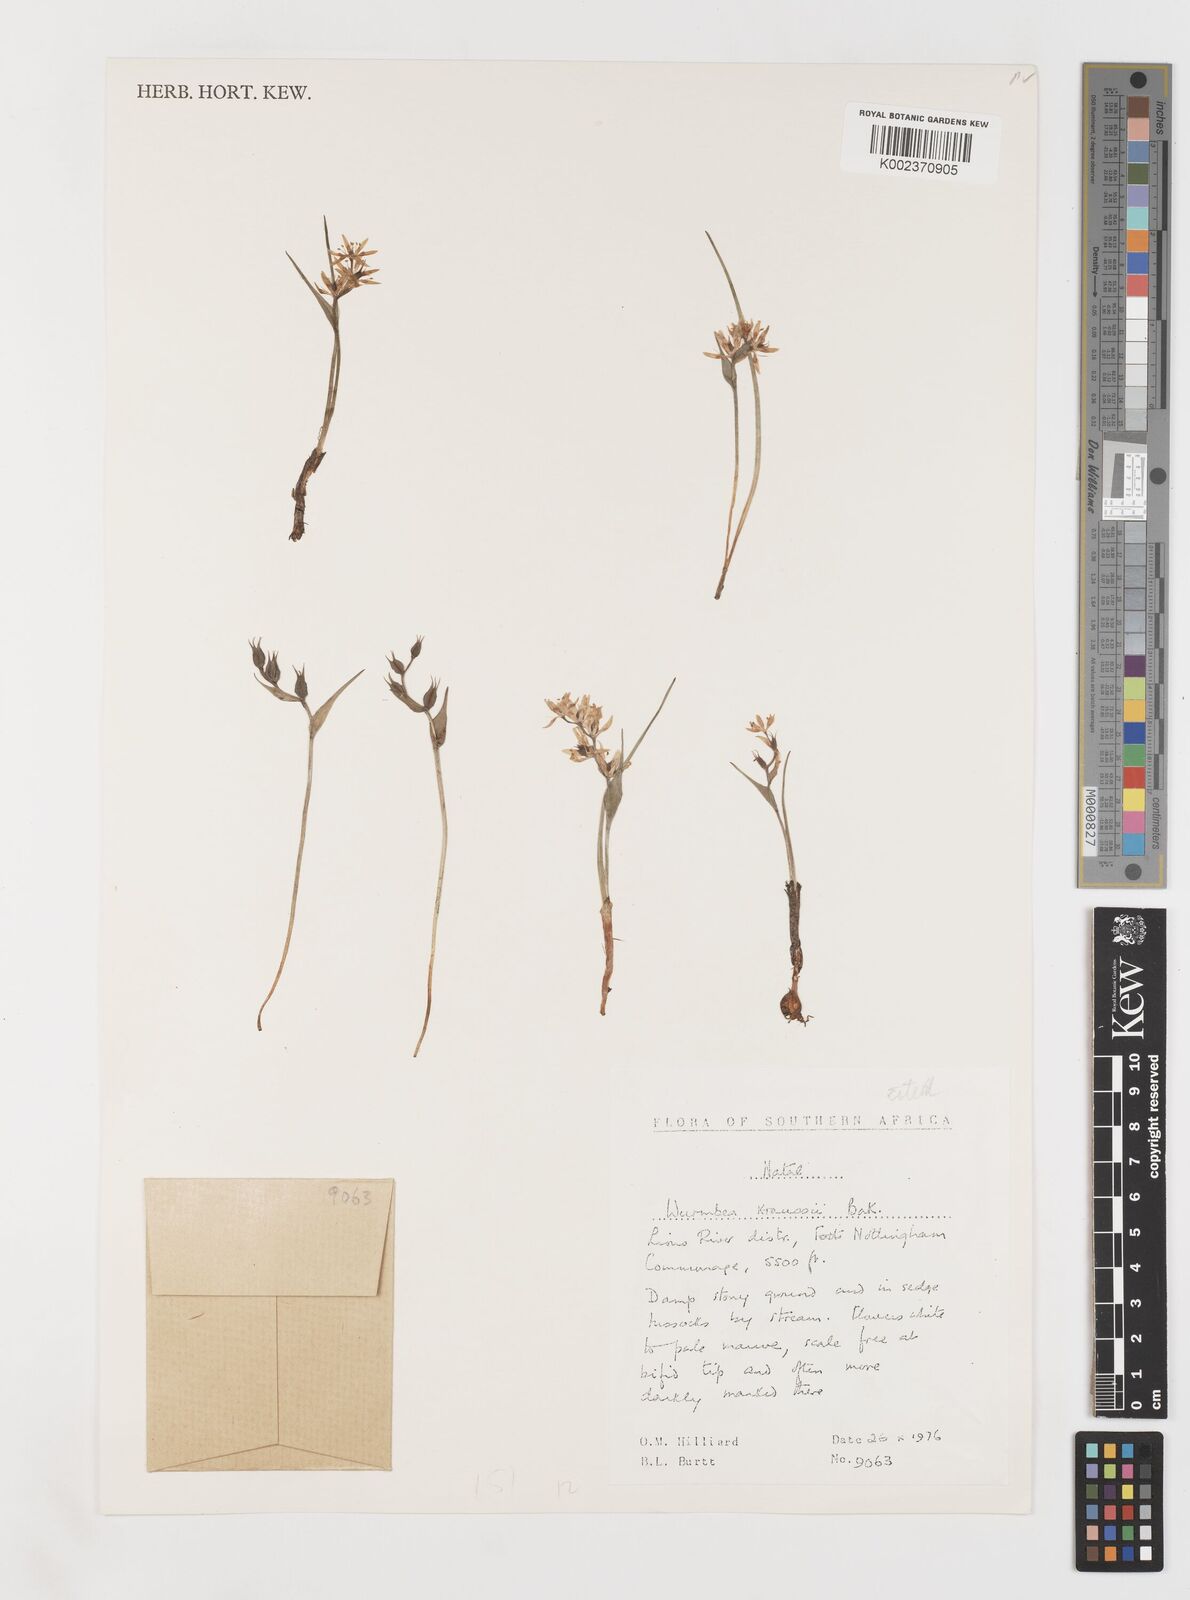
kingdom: Plantae
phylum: Tracheophyta
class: Liliopsida
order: Liliales
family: Colchicaceae
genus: Wurmbea
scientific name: Wurmbea kraussii
